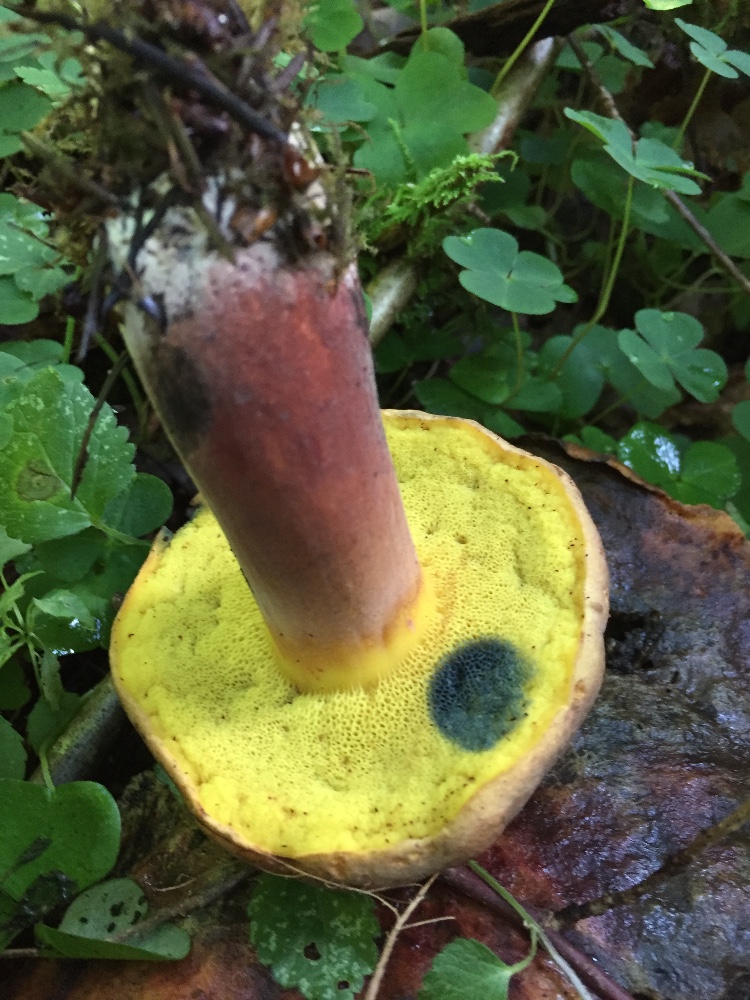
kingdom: Fungi
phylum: Basidiomycota
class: Agaricomycetes
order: Boletales
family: Boletaceae
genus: Cyanoboletus
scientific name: Cyanoboletus pulverulentus
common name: sortblånende rørhat
